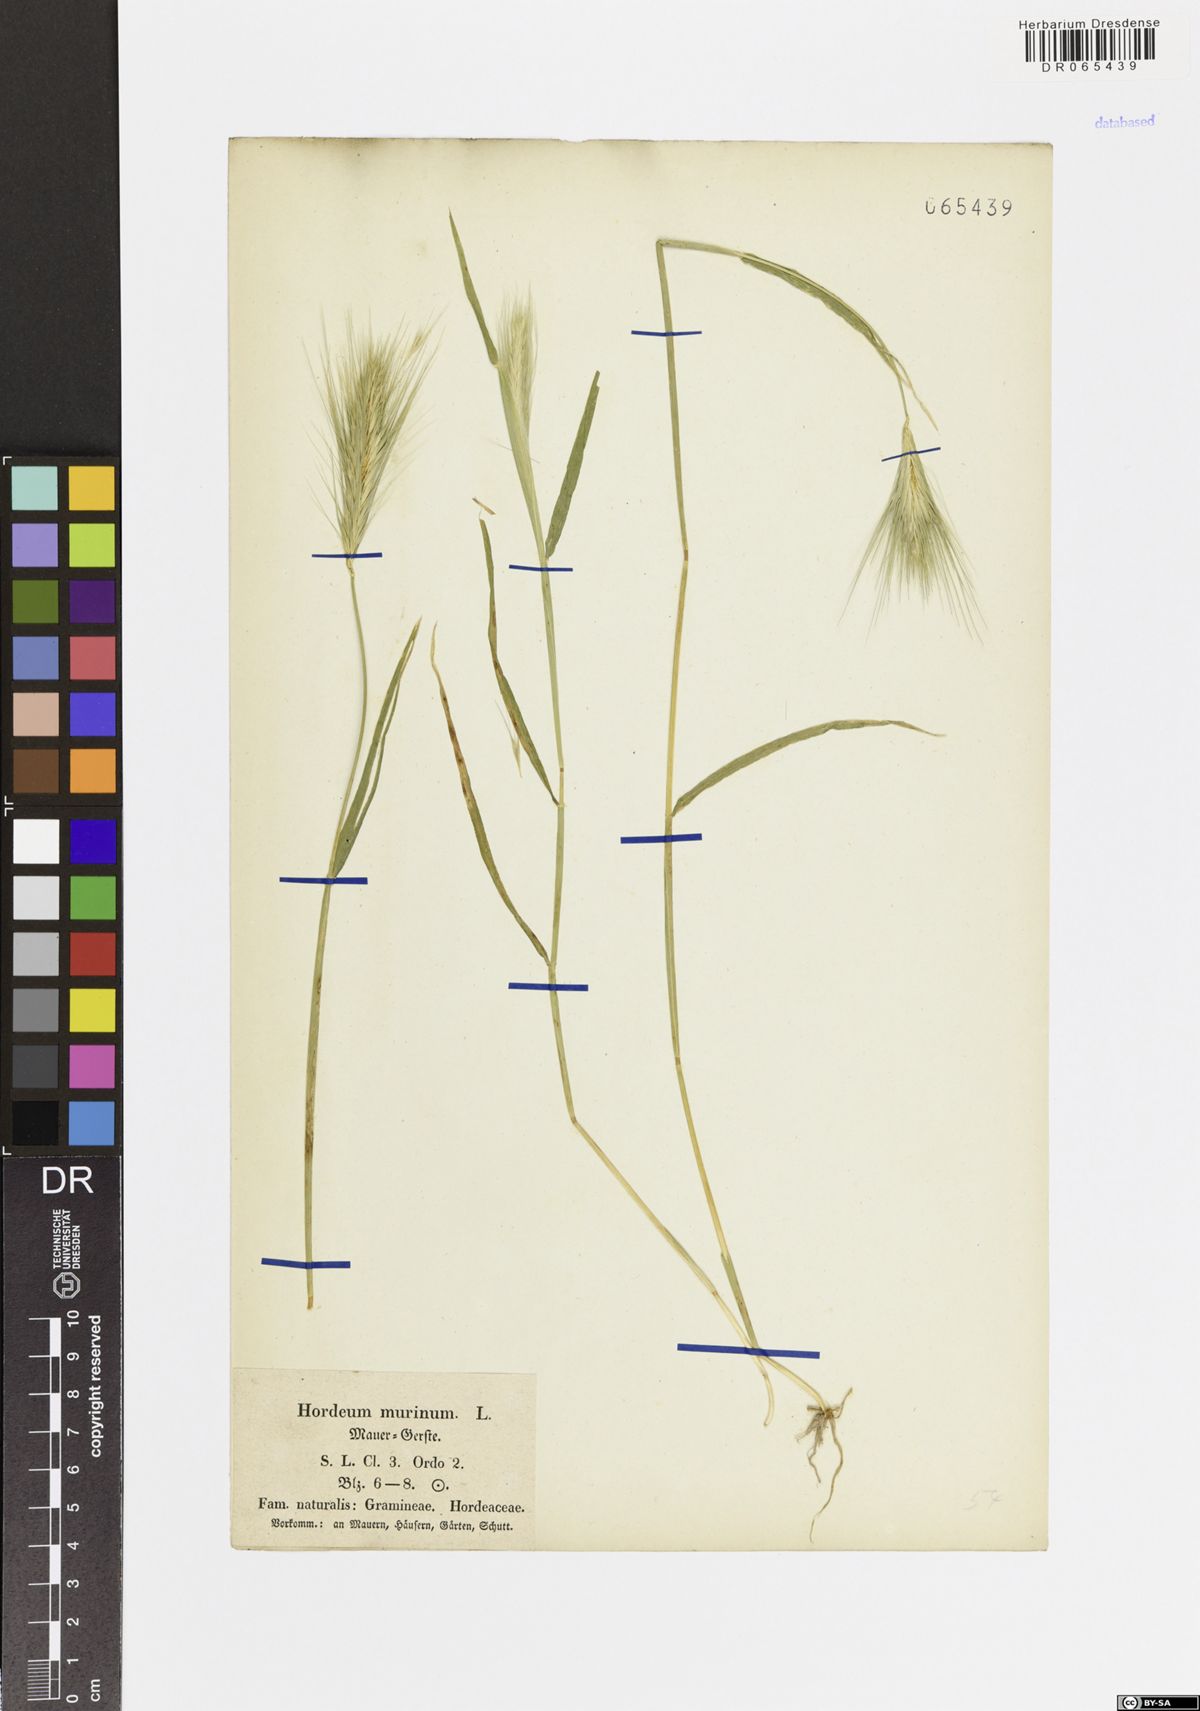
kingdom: Plantae
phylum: Tracheophyta
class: Liliopsida
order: Poales
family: Poaceae
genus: Hordeum
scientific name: Hordeum murinum
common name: Wall barley
